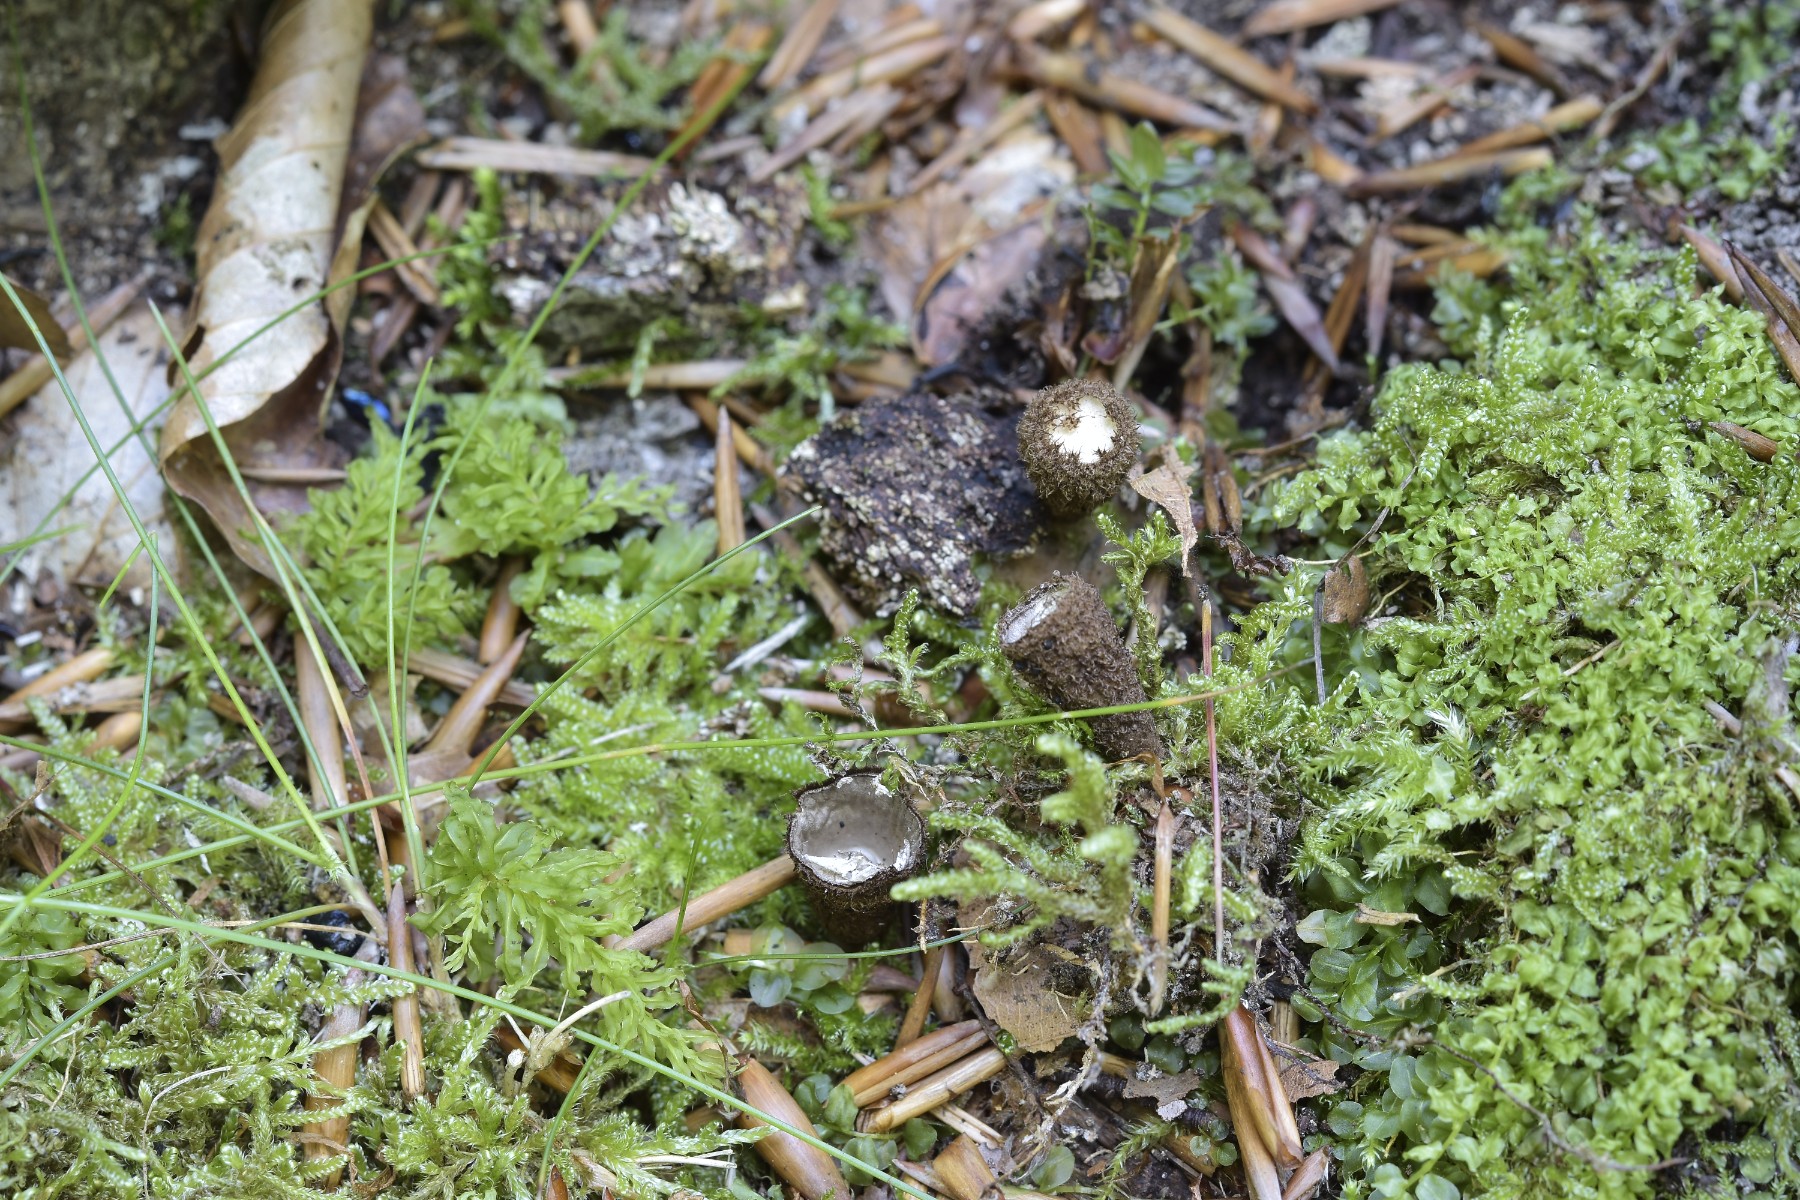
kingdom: Fungi
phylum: Basidiomycota
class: Agaricomycetes
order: Agaricales
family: Agaricaceae
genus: Cyathus
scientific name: Cyathus striatus
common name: stribet redesvamp
